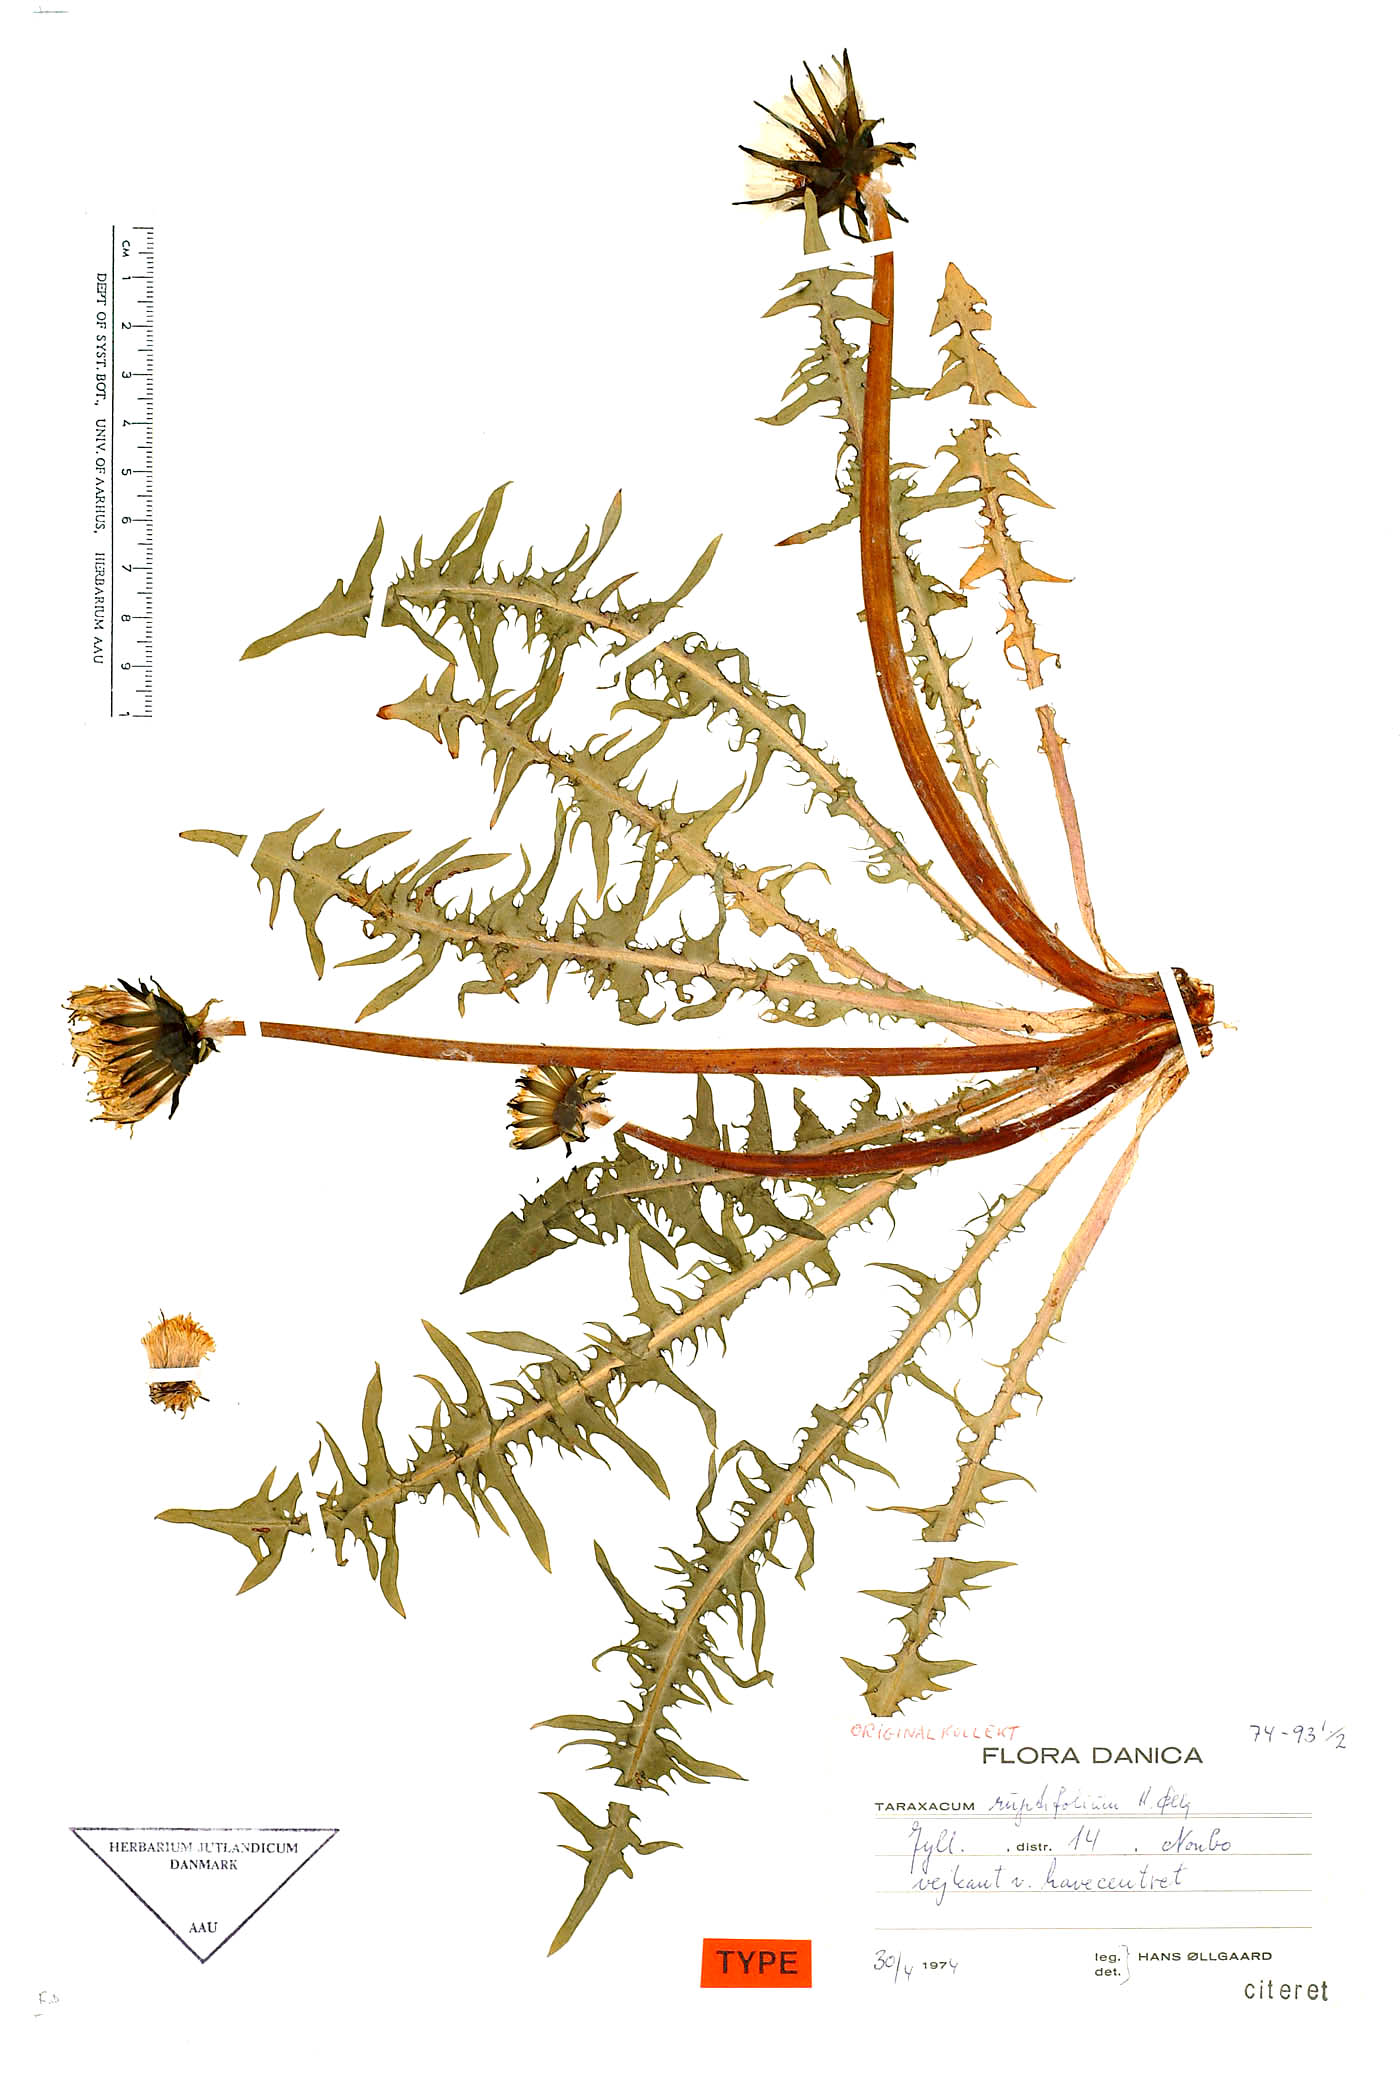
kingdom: Plantae
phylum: Tracheophyta
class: Magnoliopsida
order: Asterales
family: Asteraceae
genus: Taraxacum
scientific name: Taraxacum ruptifolium
